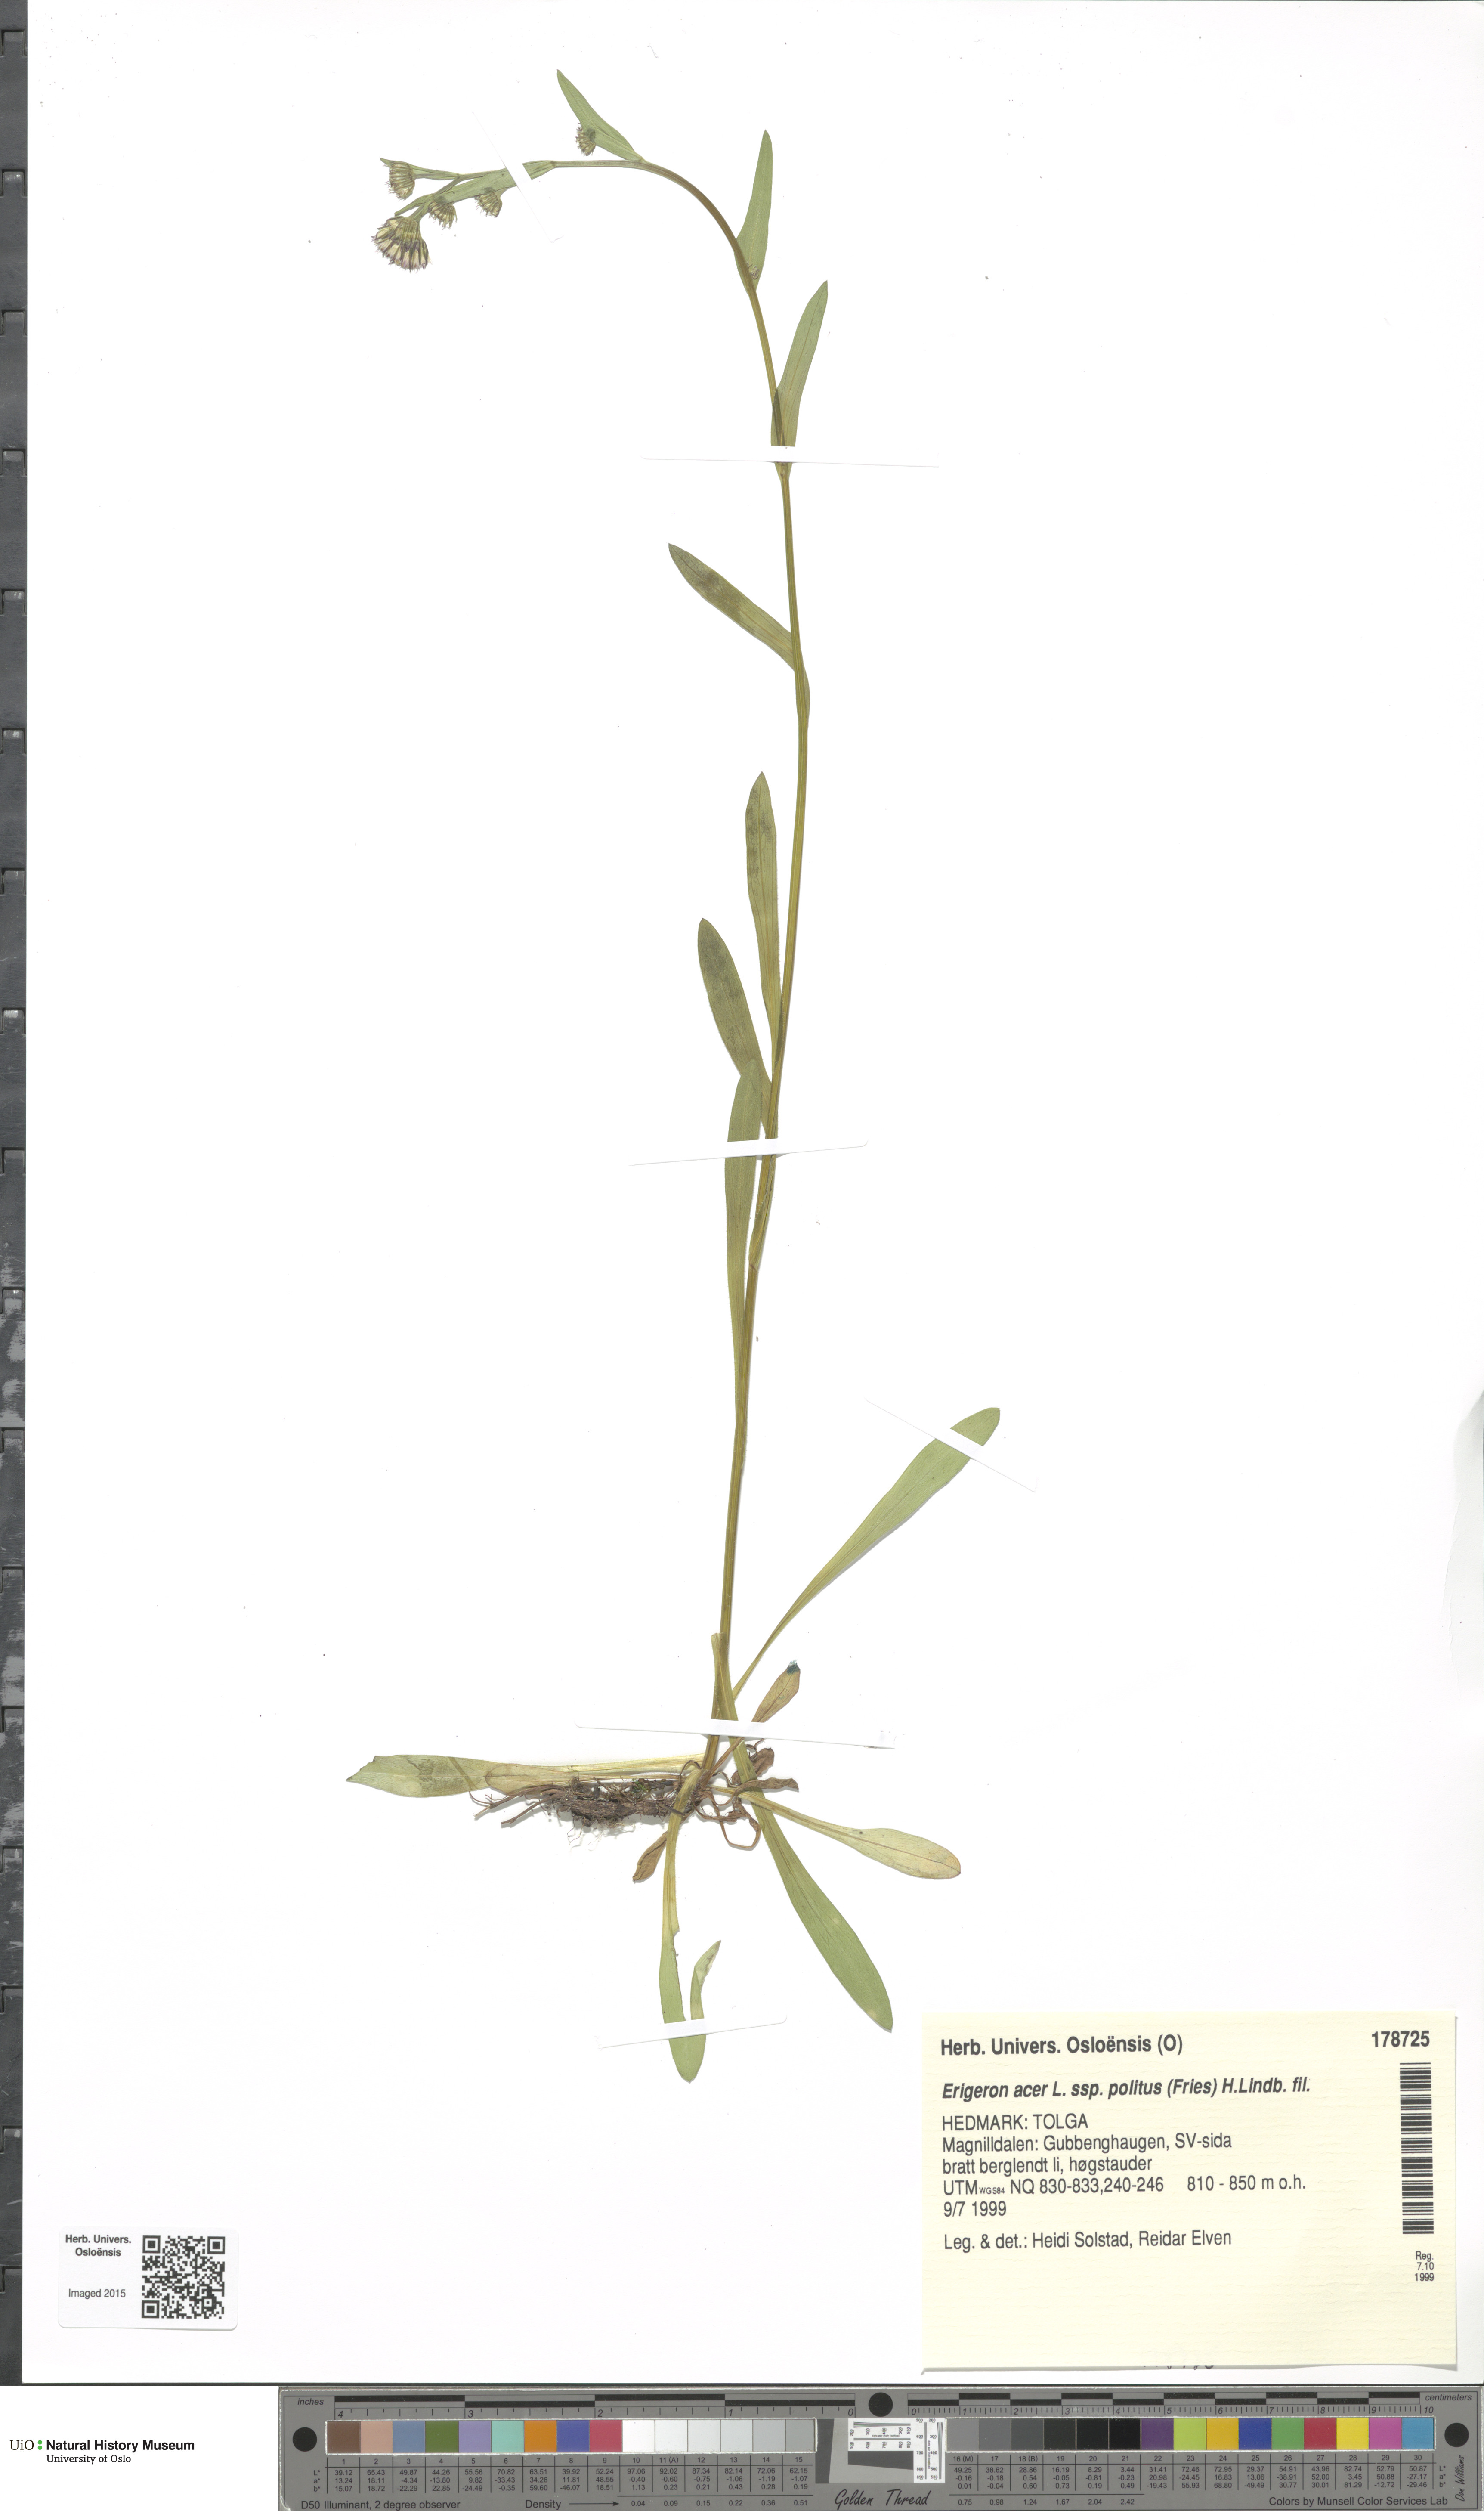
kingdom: Plantae
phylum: Tracheophyta
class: Magnoliopsida
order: Asterales
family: Asteraceae
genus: Erigeron
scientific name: Erigeron politus
